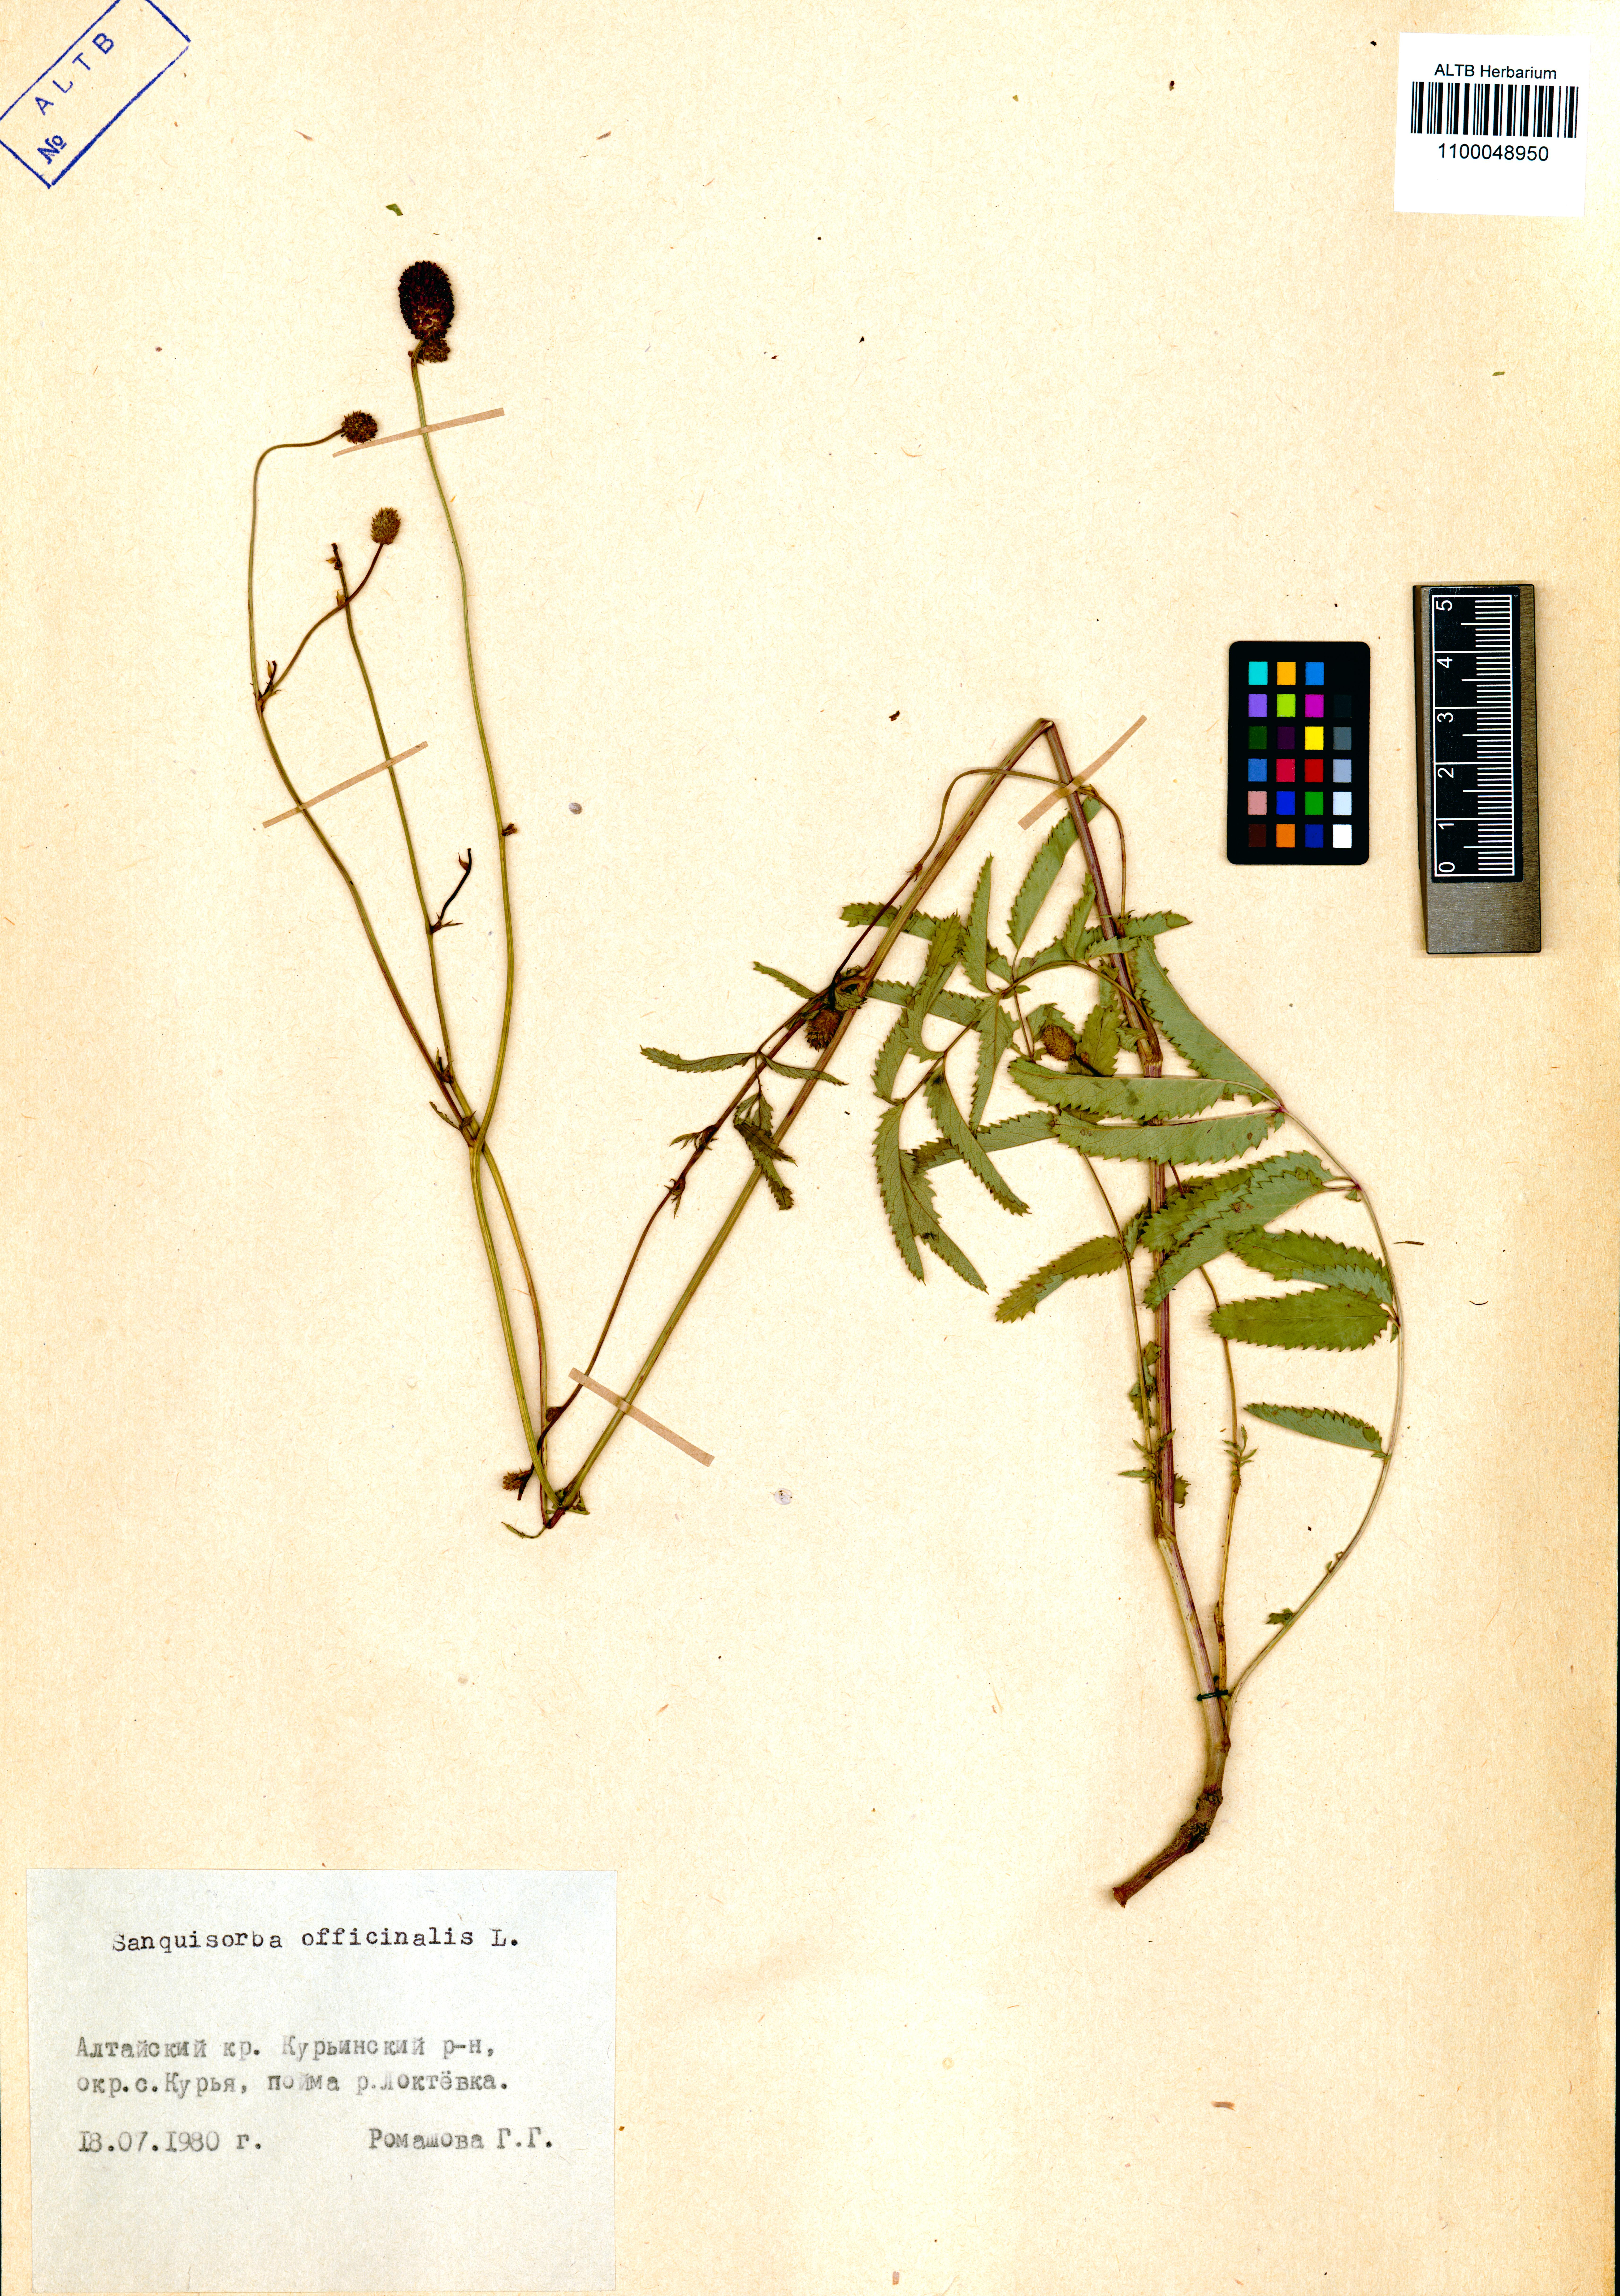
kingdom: Plantae
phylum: Tracheophyta
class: Magnoliopsida
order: Rosales
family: Rosaceae
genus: Sanguisorba
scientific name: Sanguisorba officinalis
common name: Great burnet
